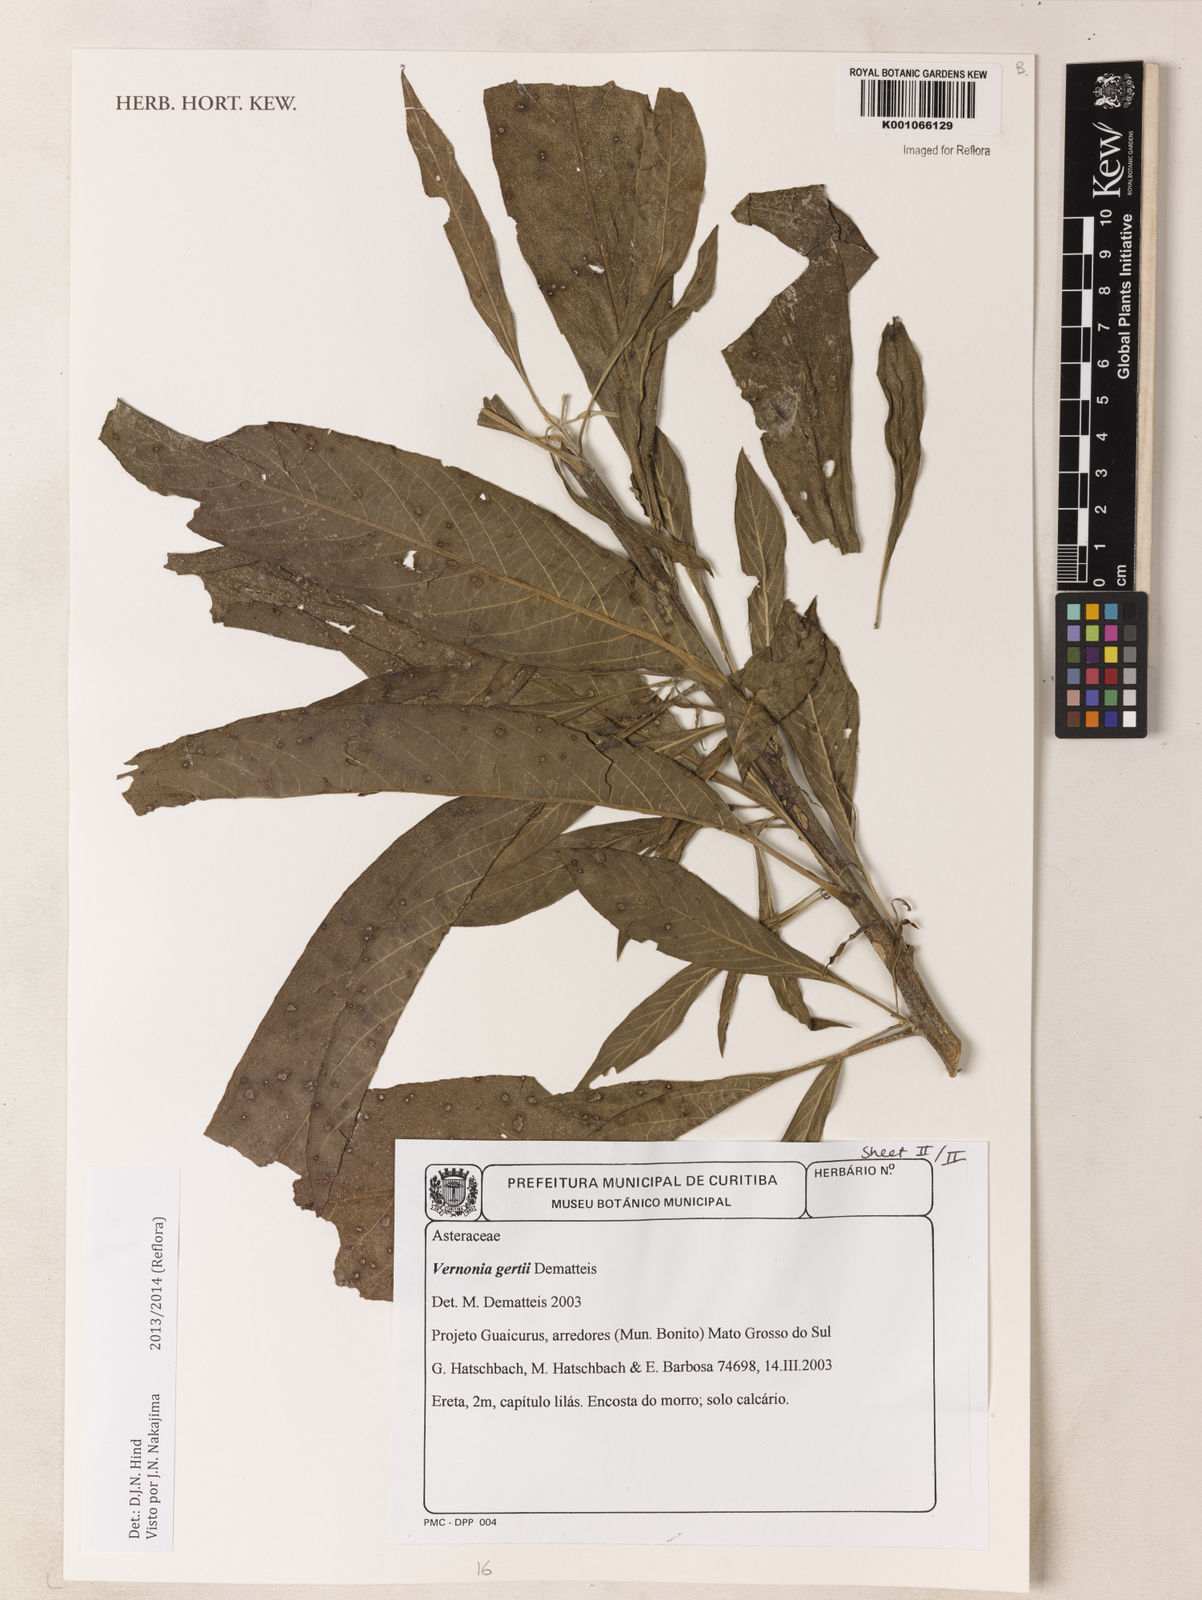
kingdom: Plantae
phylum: Tracheophyta
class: Magnoliopsida
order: Asterales
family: Asteraceae
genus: Lessingianthus
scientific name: Lessingianthus bishopii
